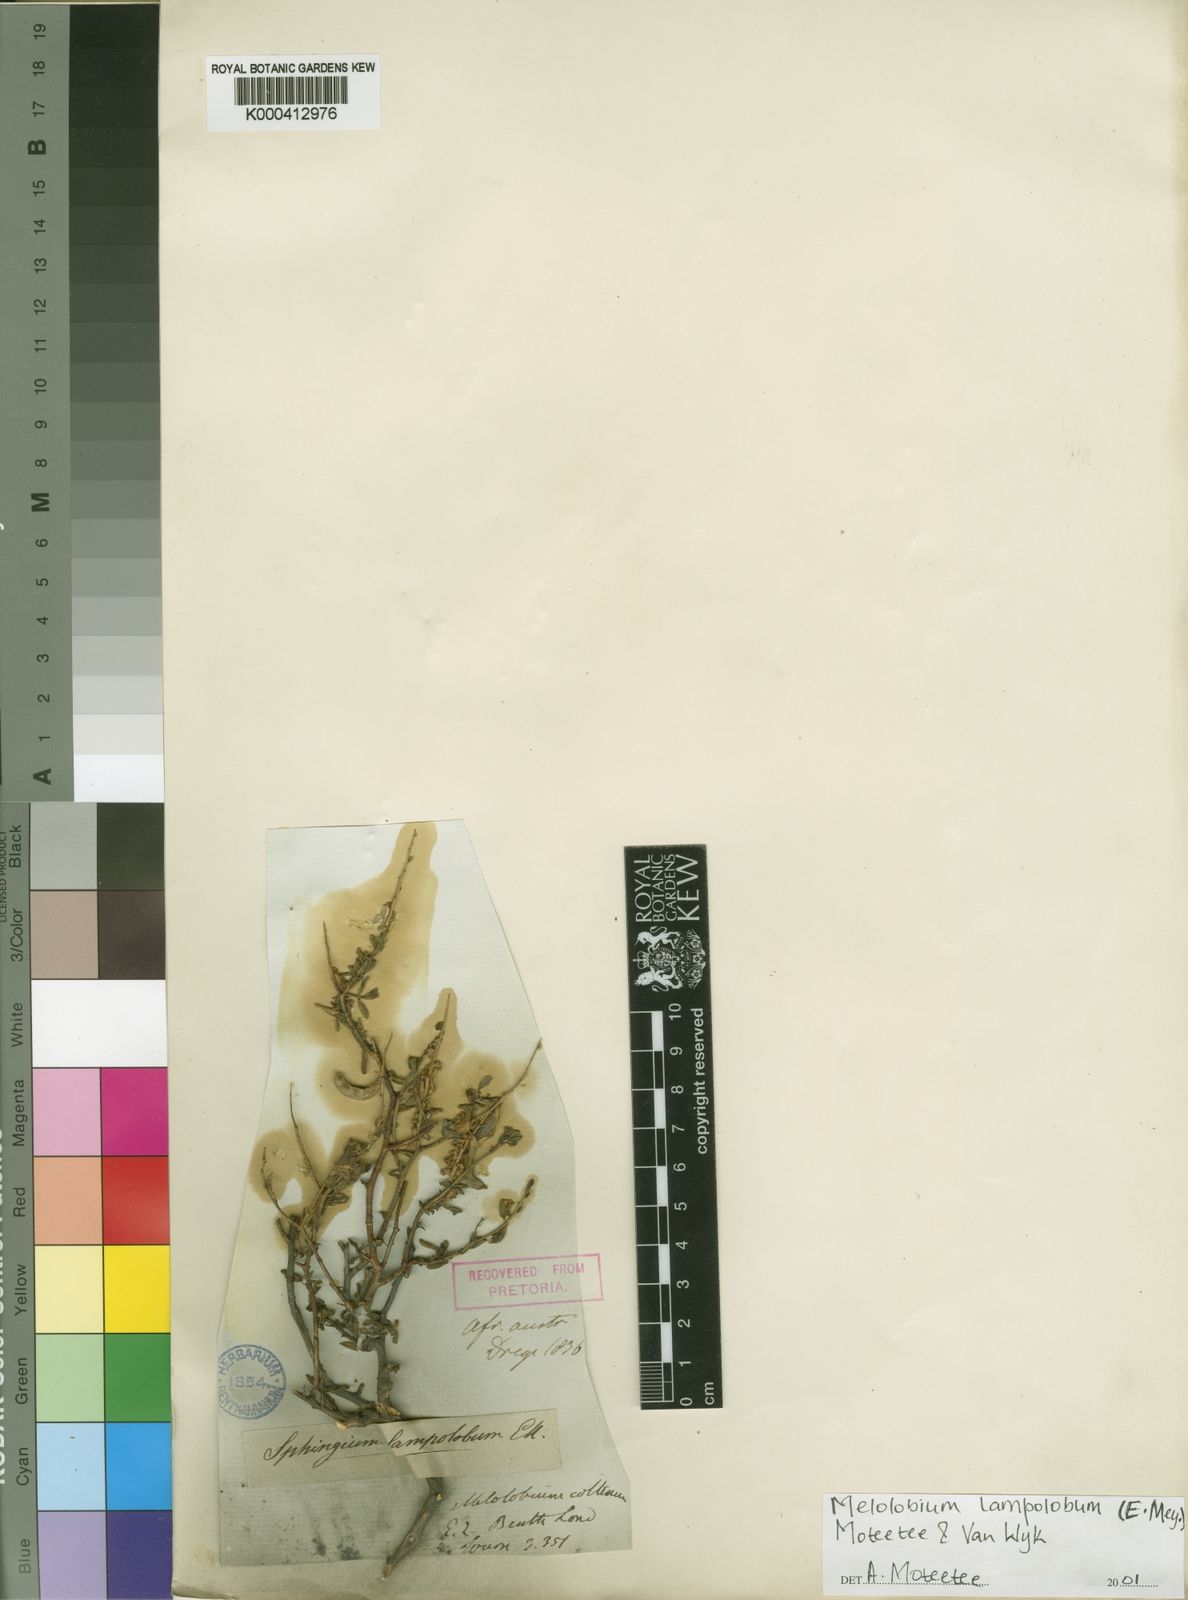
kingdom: Plantae
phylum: Tracheophyta
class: Magnoliopsida
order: Fabales
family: Fabaceae
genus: Melolobium
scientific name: Melolobium lampolobum
